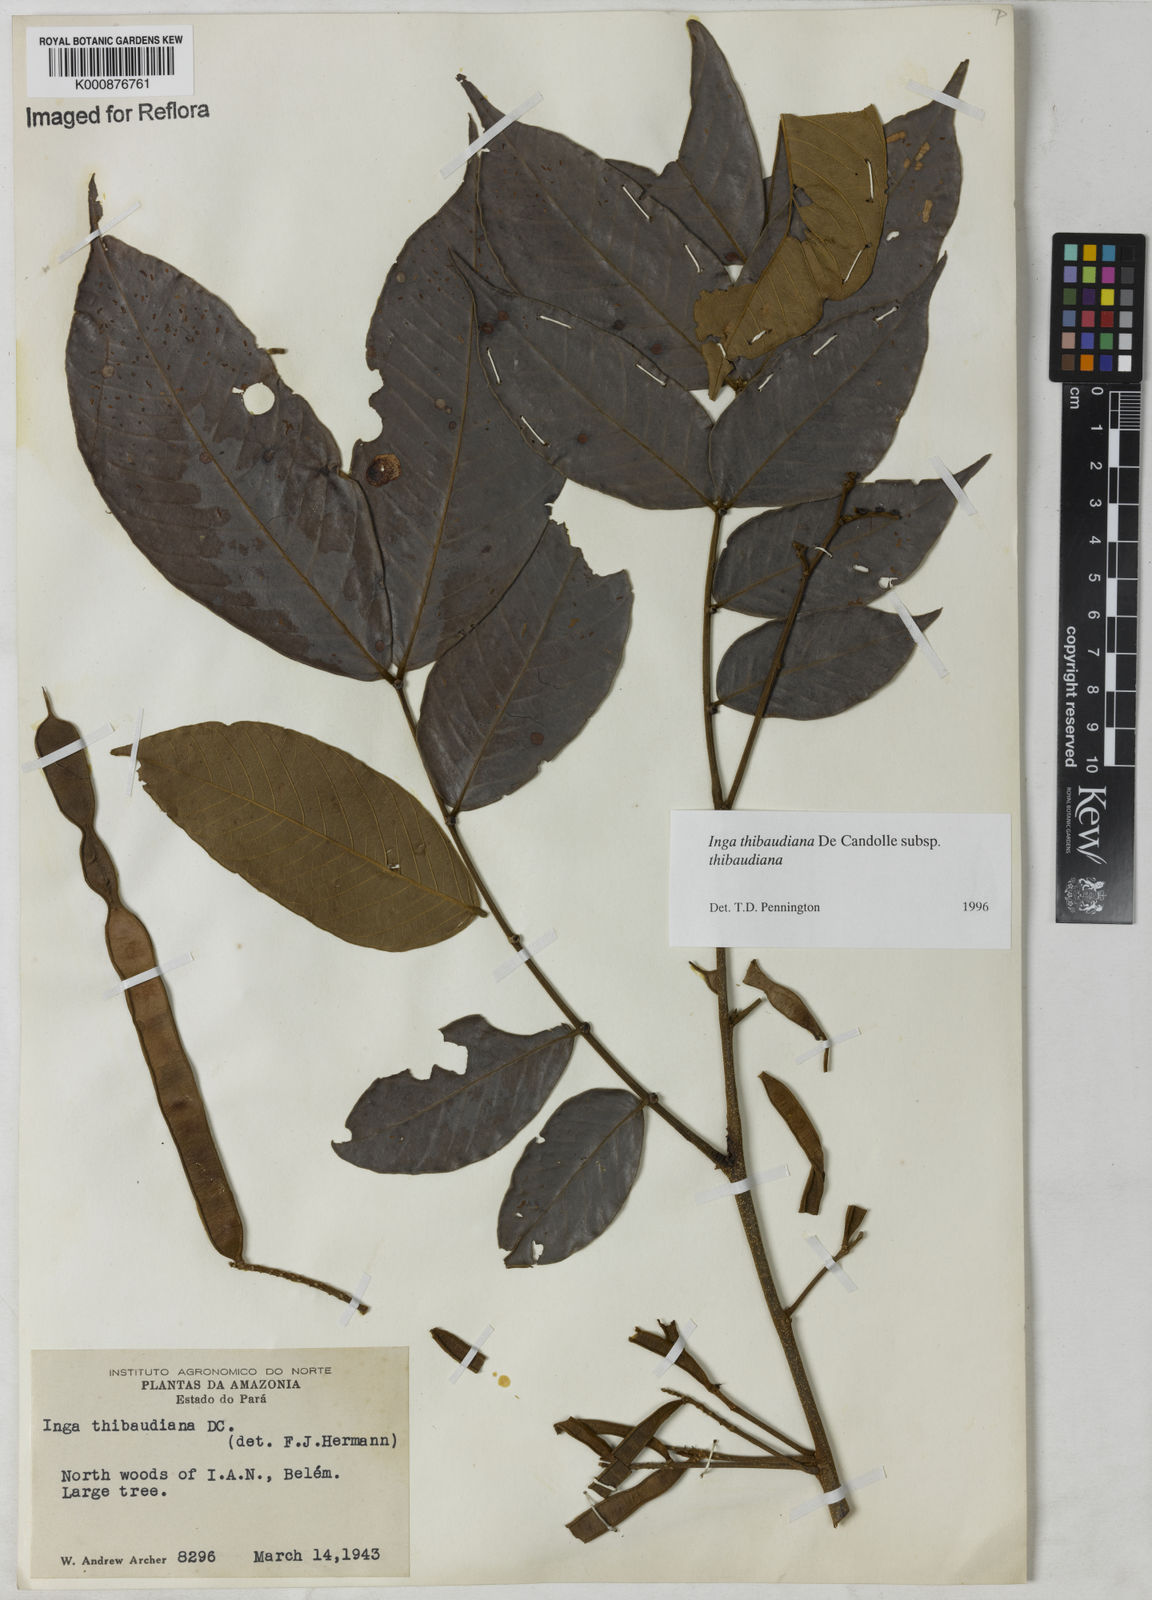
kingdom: Plantae
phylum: Tracheophyta
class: Magnoliopsida
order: Fabales
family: Fabaceae
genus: Inga
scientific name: Inga thibaudiana
